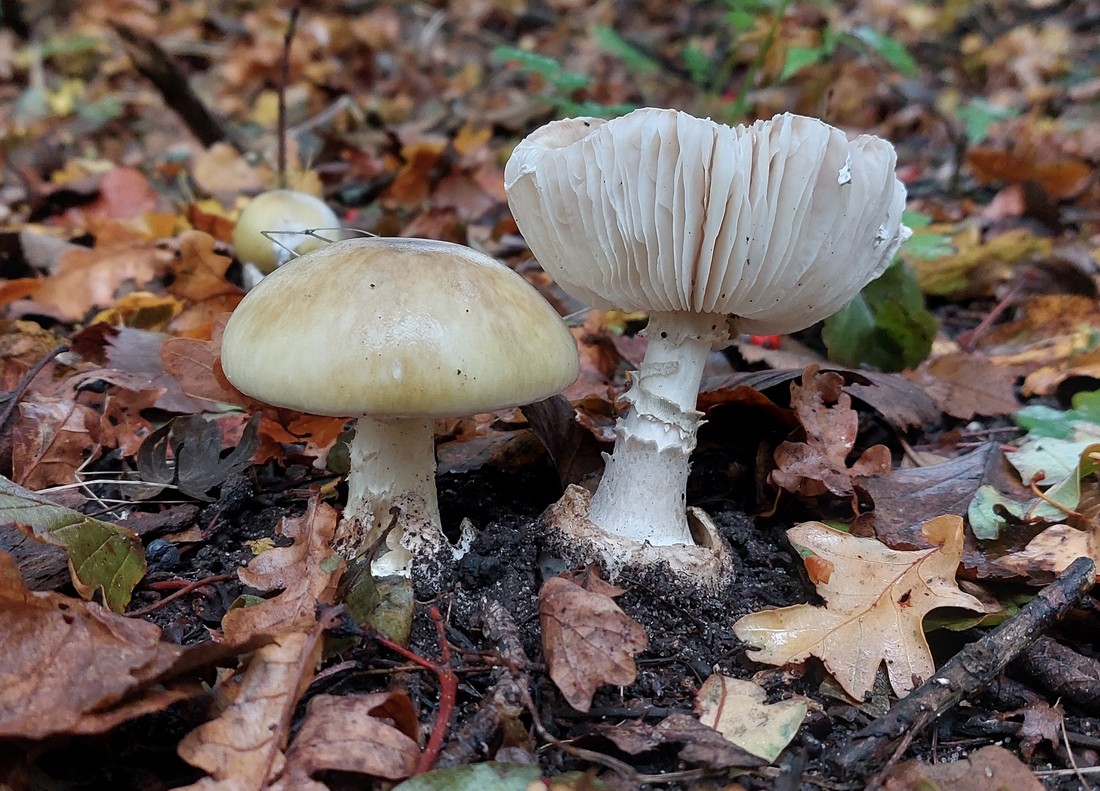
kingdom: Fungi
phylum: Basidiomycota
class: Agaricomycetes
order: Agaricales
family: Amanitaceae
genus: Amanita
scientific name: Amanita phalloides
